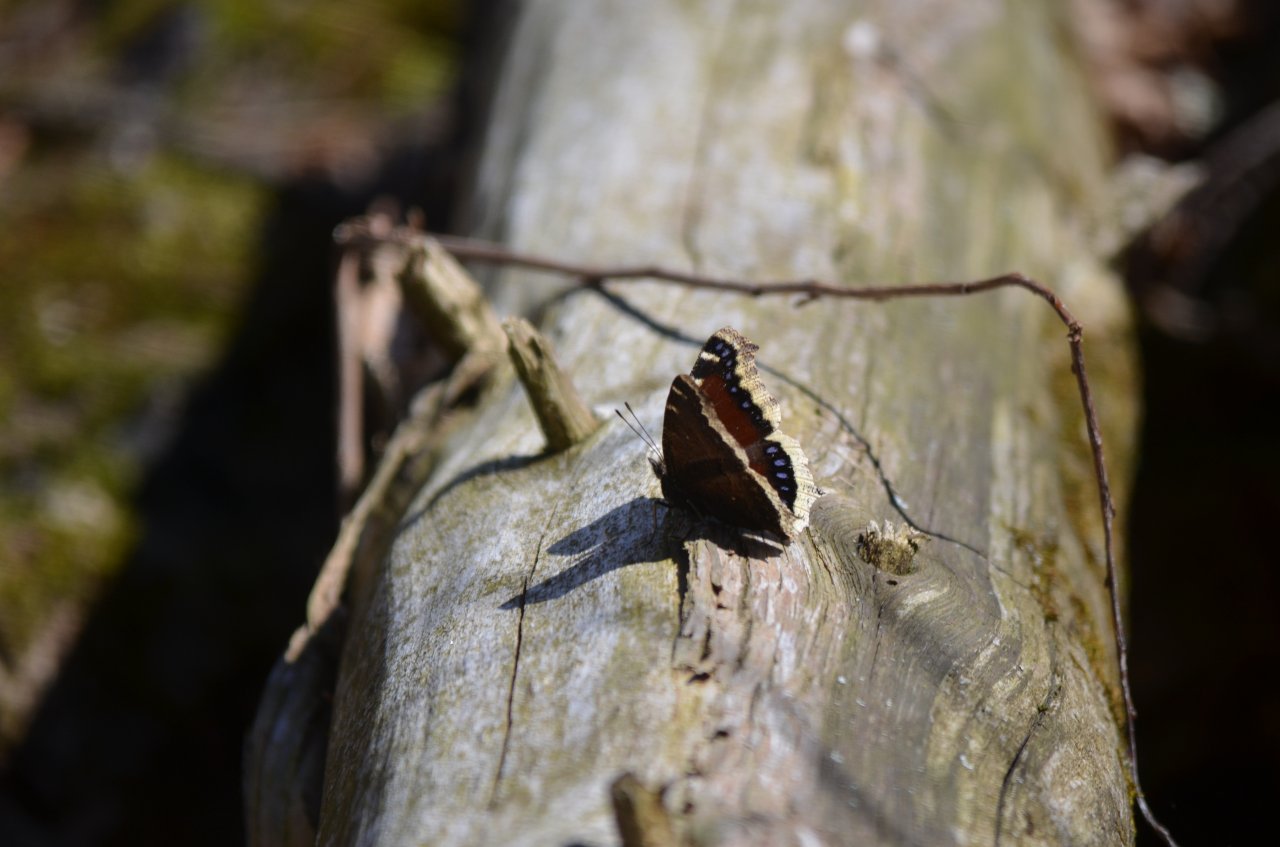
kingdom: Animalia
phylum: Arthropoda
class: Insecta
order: Lepidoptera
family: Nymphalidae
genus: Nymphalis
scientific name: Nymphalis antiopa
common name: Mourning Cloak
